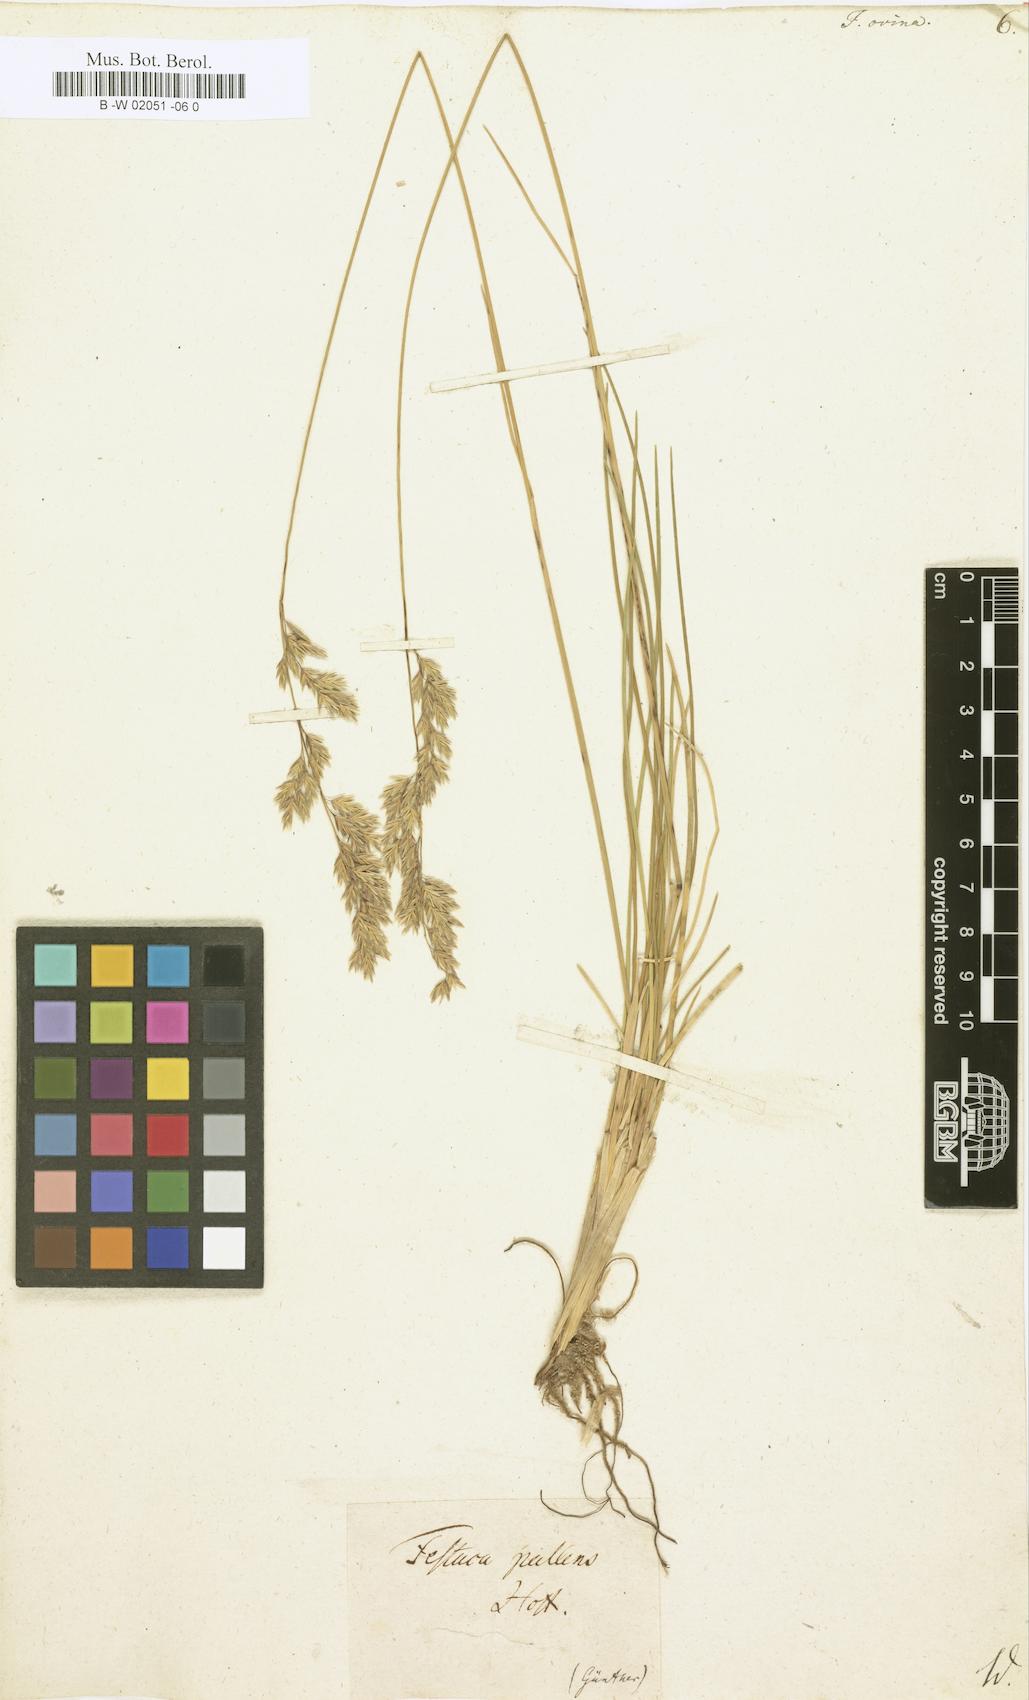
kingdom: Plantae
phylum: Tracheophyta
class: Liliopsida
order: Poales
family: Poaceae
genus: Festuca
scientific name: Festuca ovina
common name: Sheep fescue
